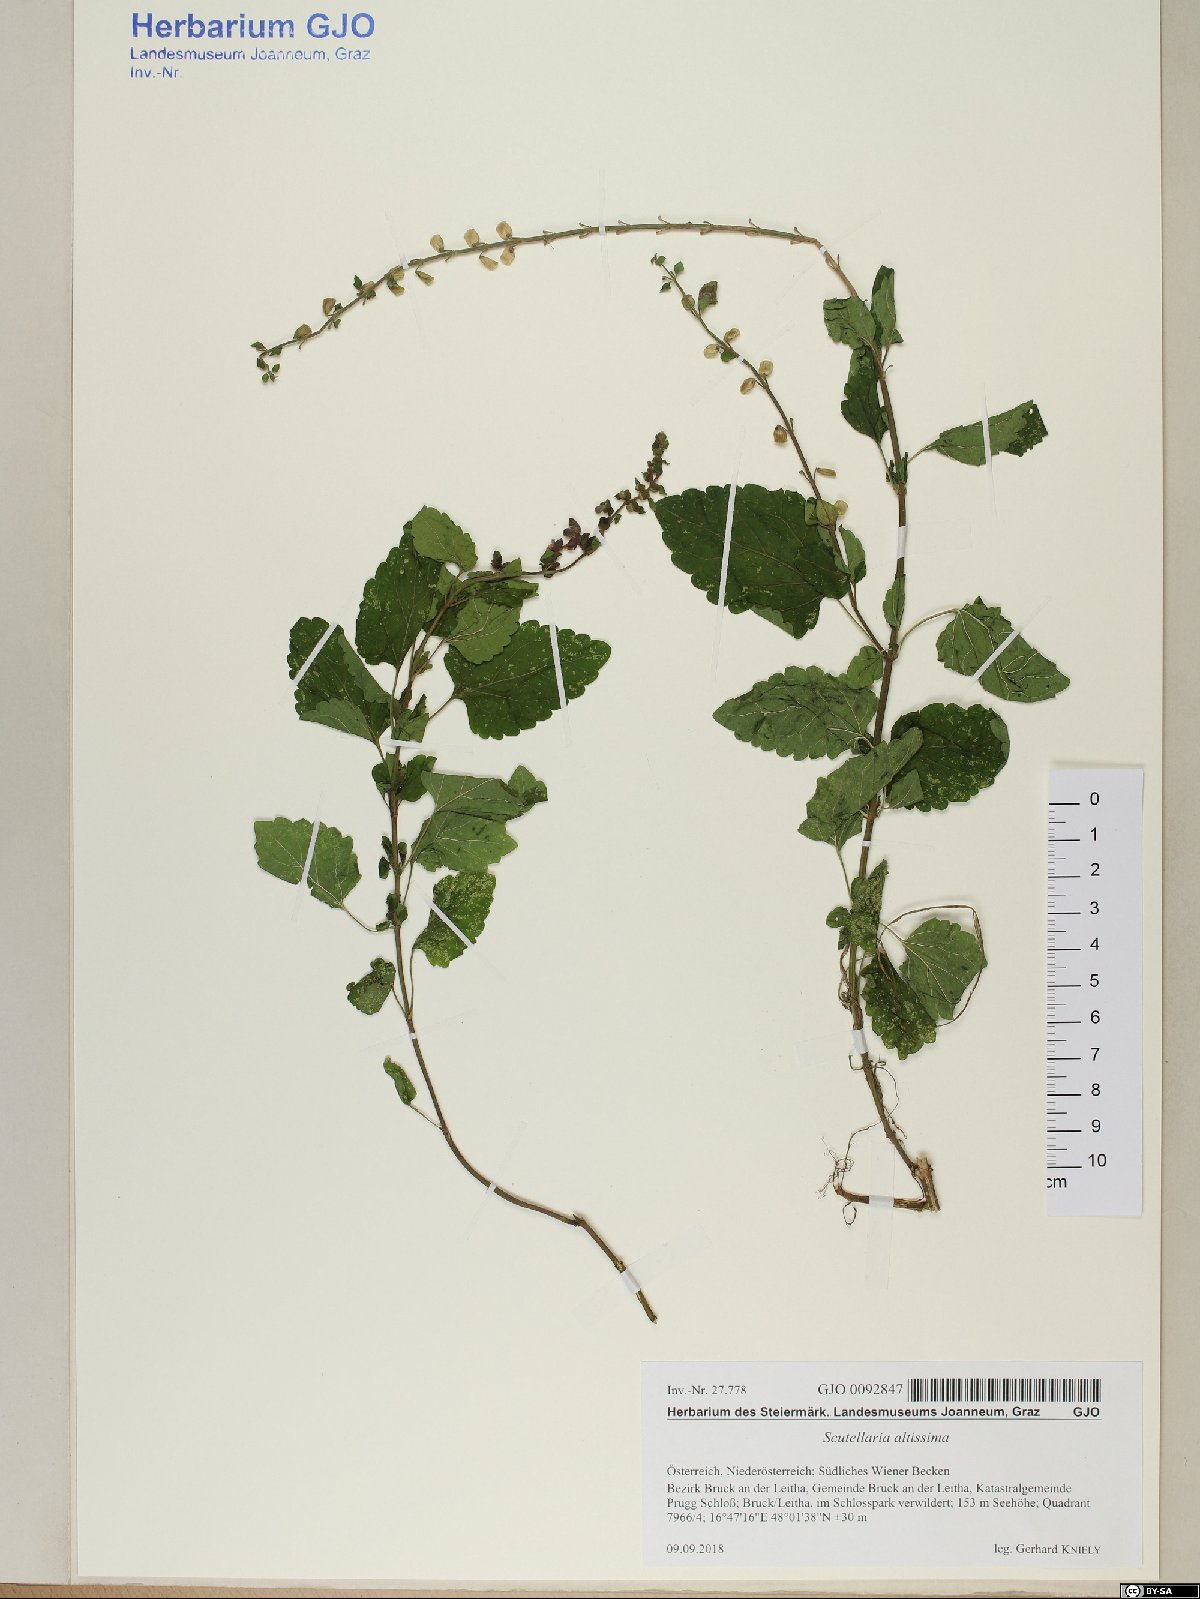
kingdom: Plantae
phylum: Tracheophyta
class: Magnoliopsida
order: Lamiales
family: Lamiaceae
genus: Scutellaria
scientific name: Scutellaria altissima
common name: Somerset skullcap
